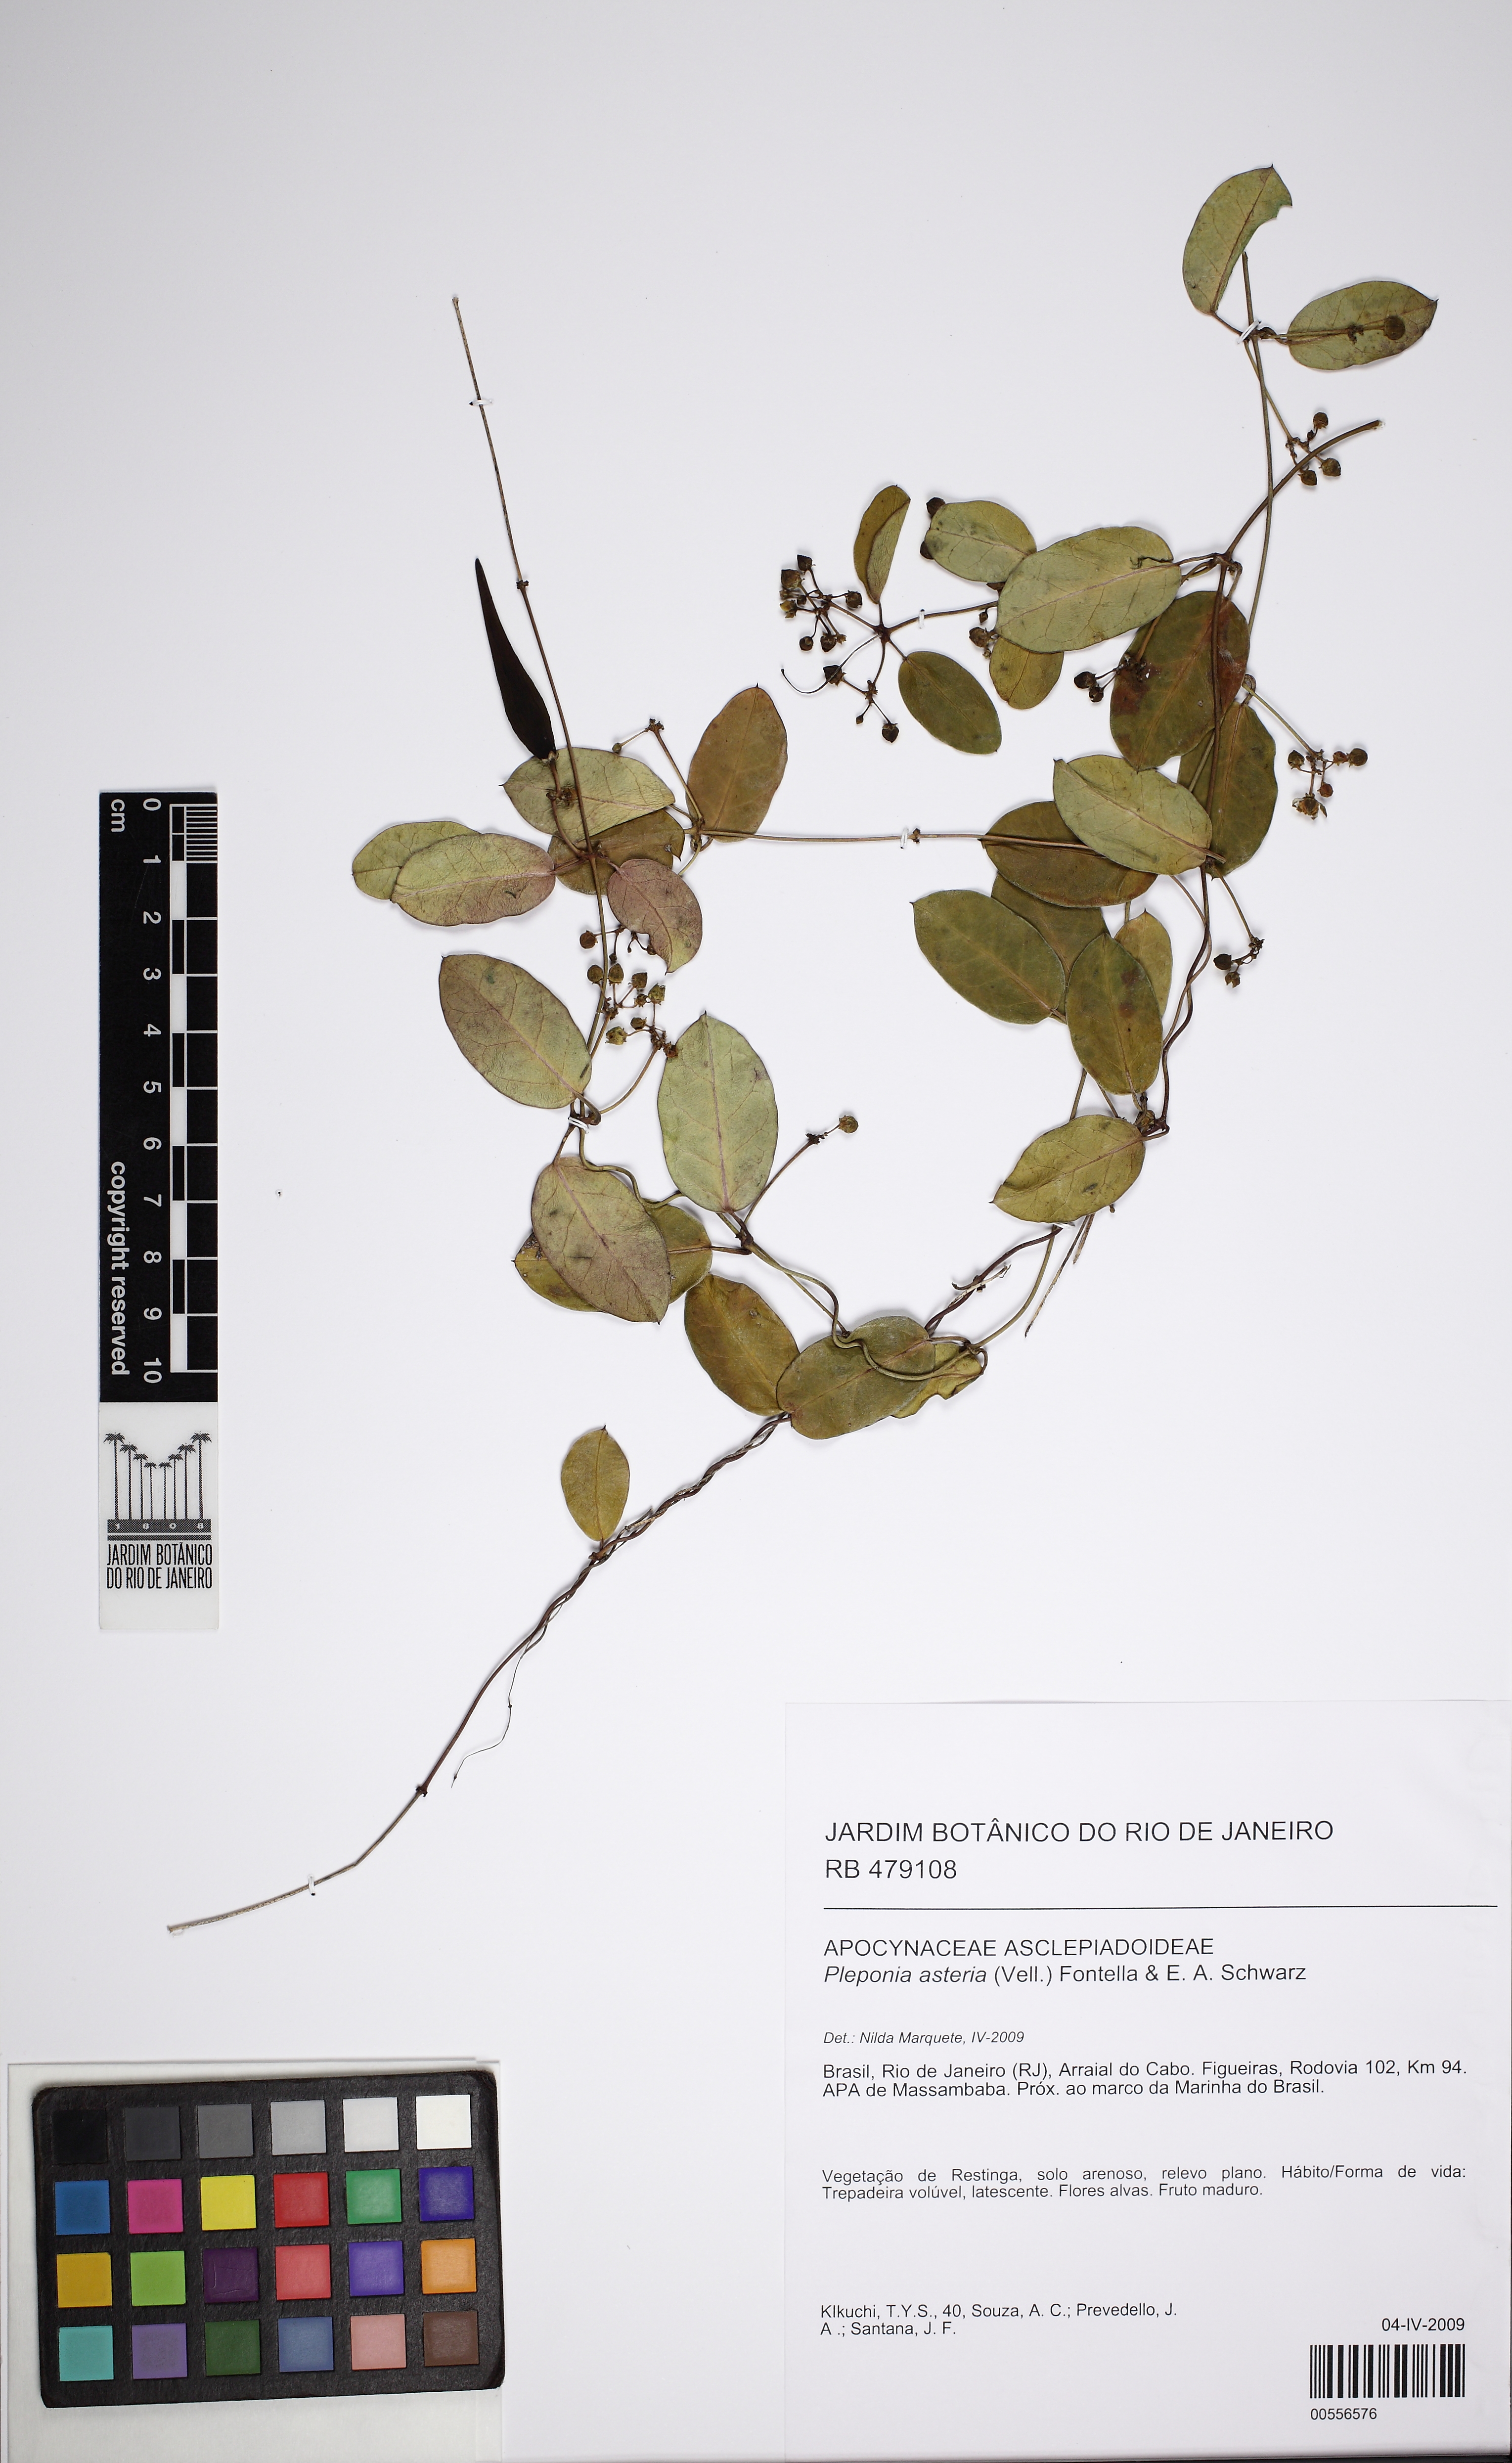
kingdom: Plantae
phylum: Tracheophyta
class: Magnoliopsida
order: Gentianales
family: Apocynaceae
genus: Peplonia
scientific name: Peplonia asteria
